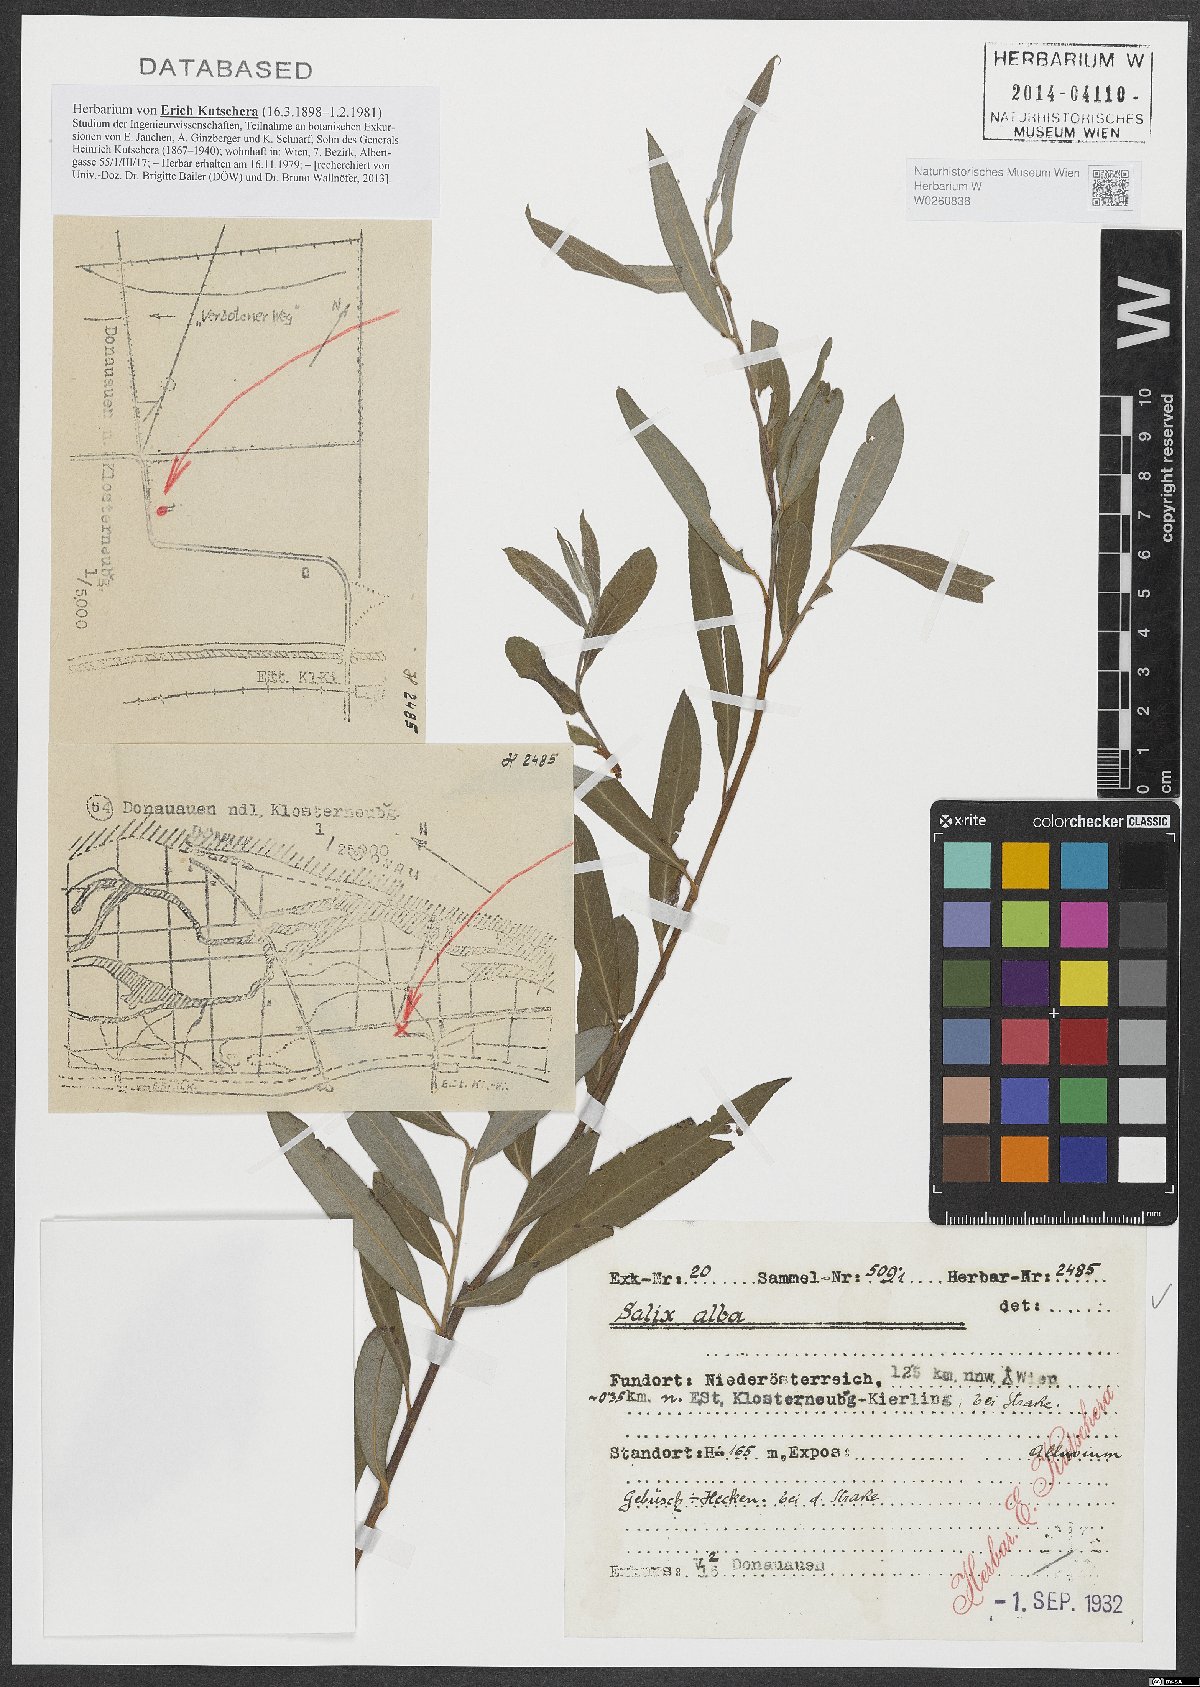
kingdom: Plantae
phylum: Tracheophyta
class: Magnoliopsida
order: Malpighiales
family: Salicaceae
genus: Salix
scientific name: Salix alba
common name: White willow
